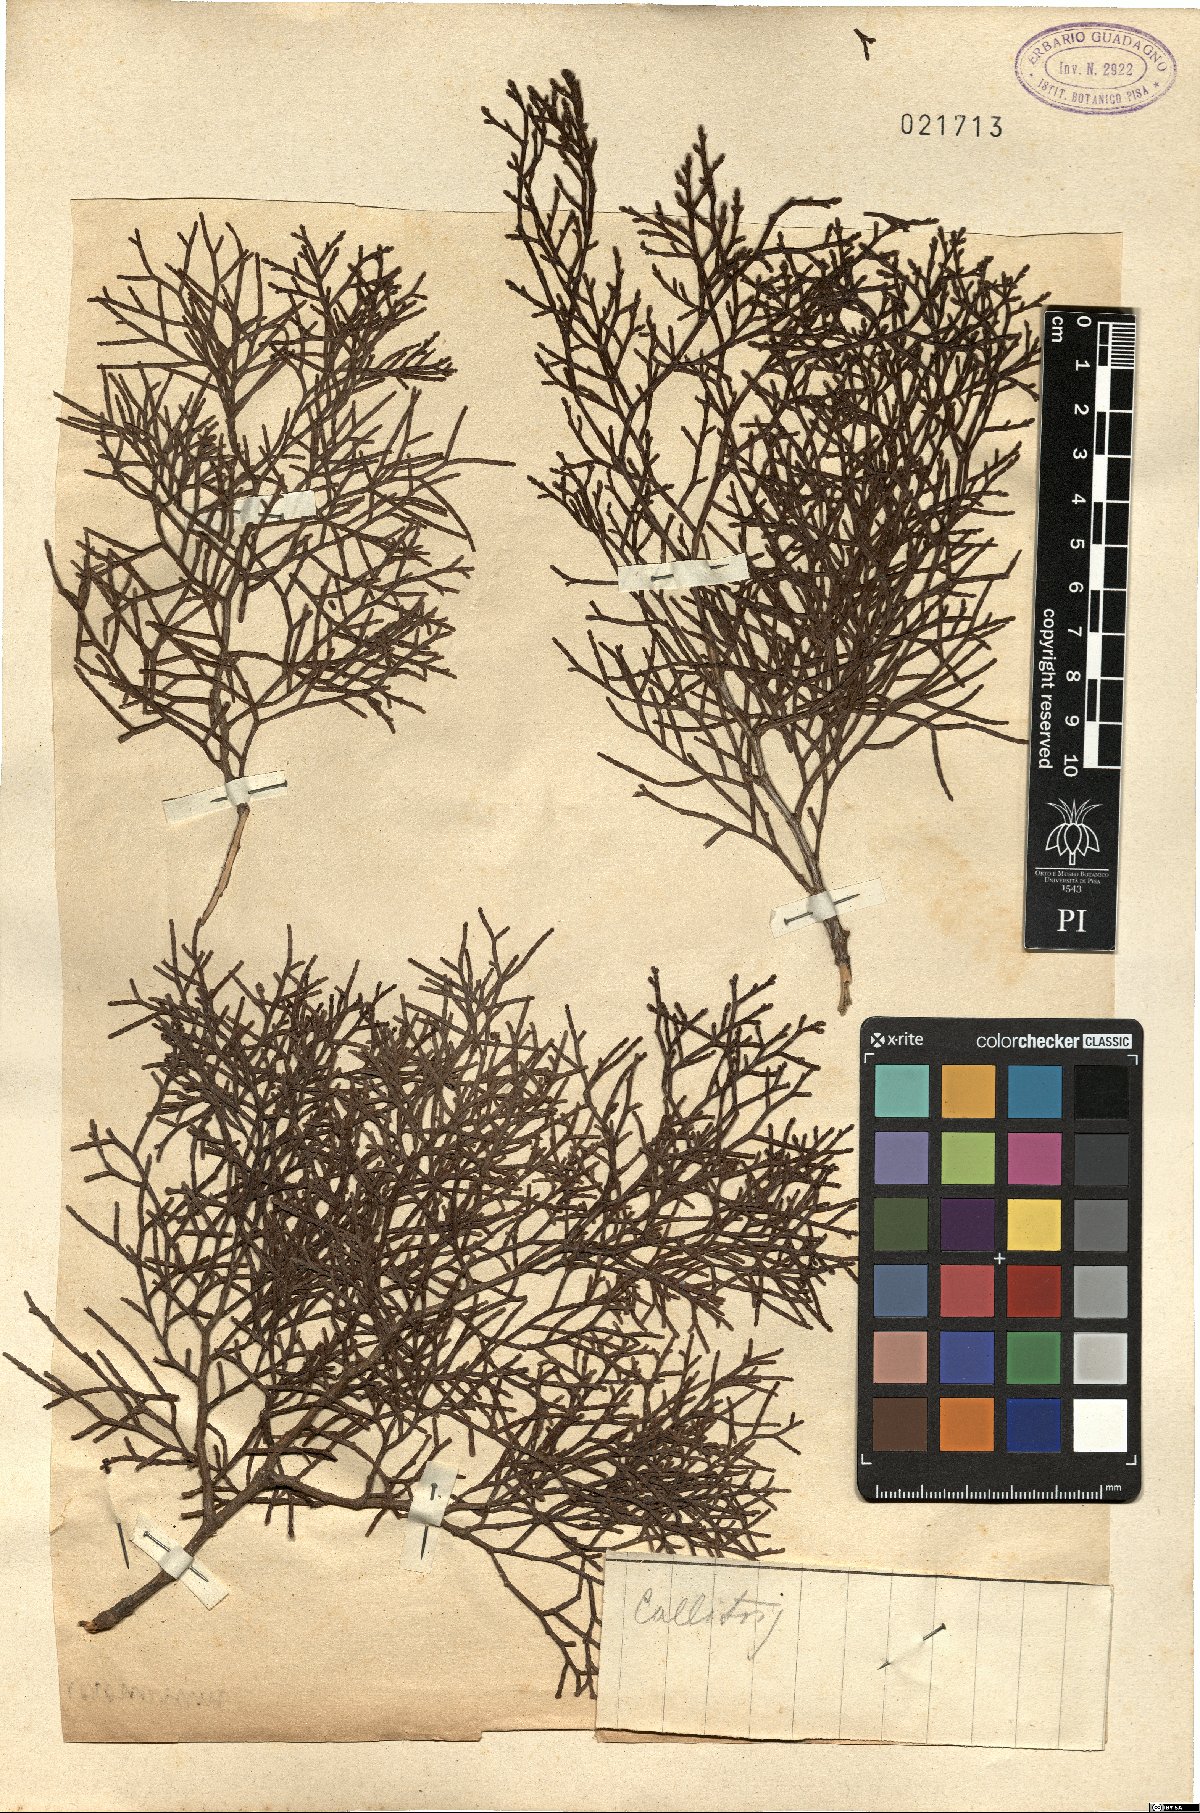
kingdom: Plantae
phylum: Tracheophyta
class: Pinopsida
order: Pinales
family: Cupressaceae
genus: Callitris
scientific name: Callitris
